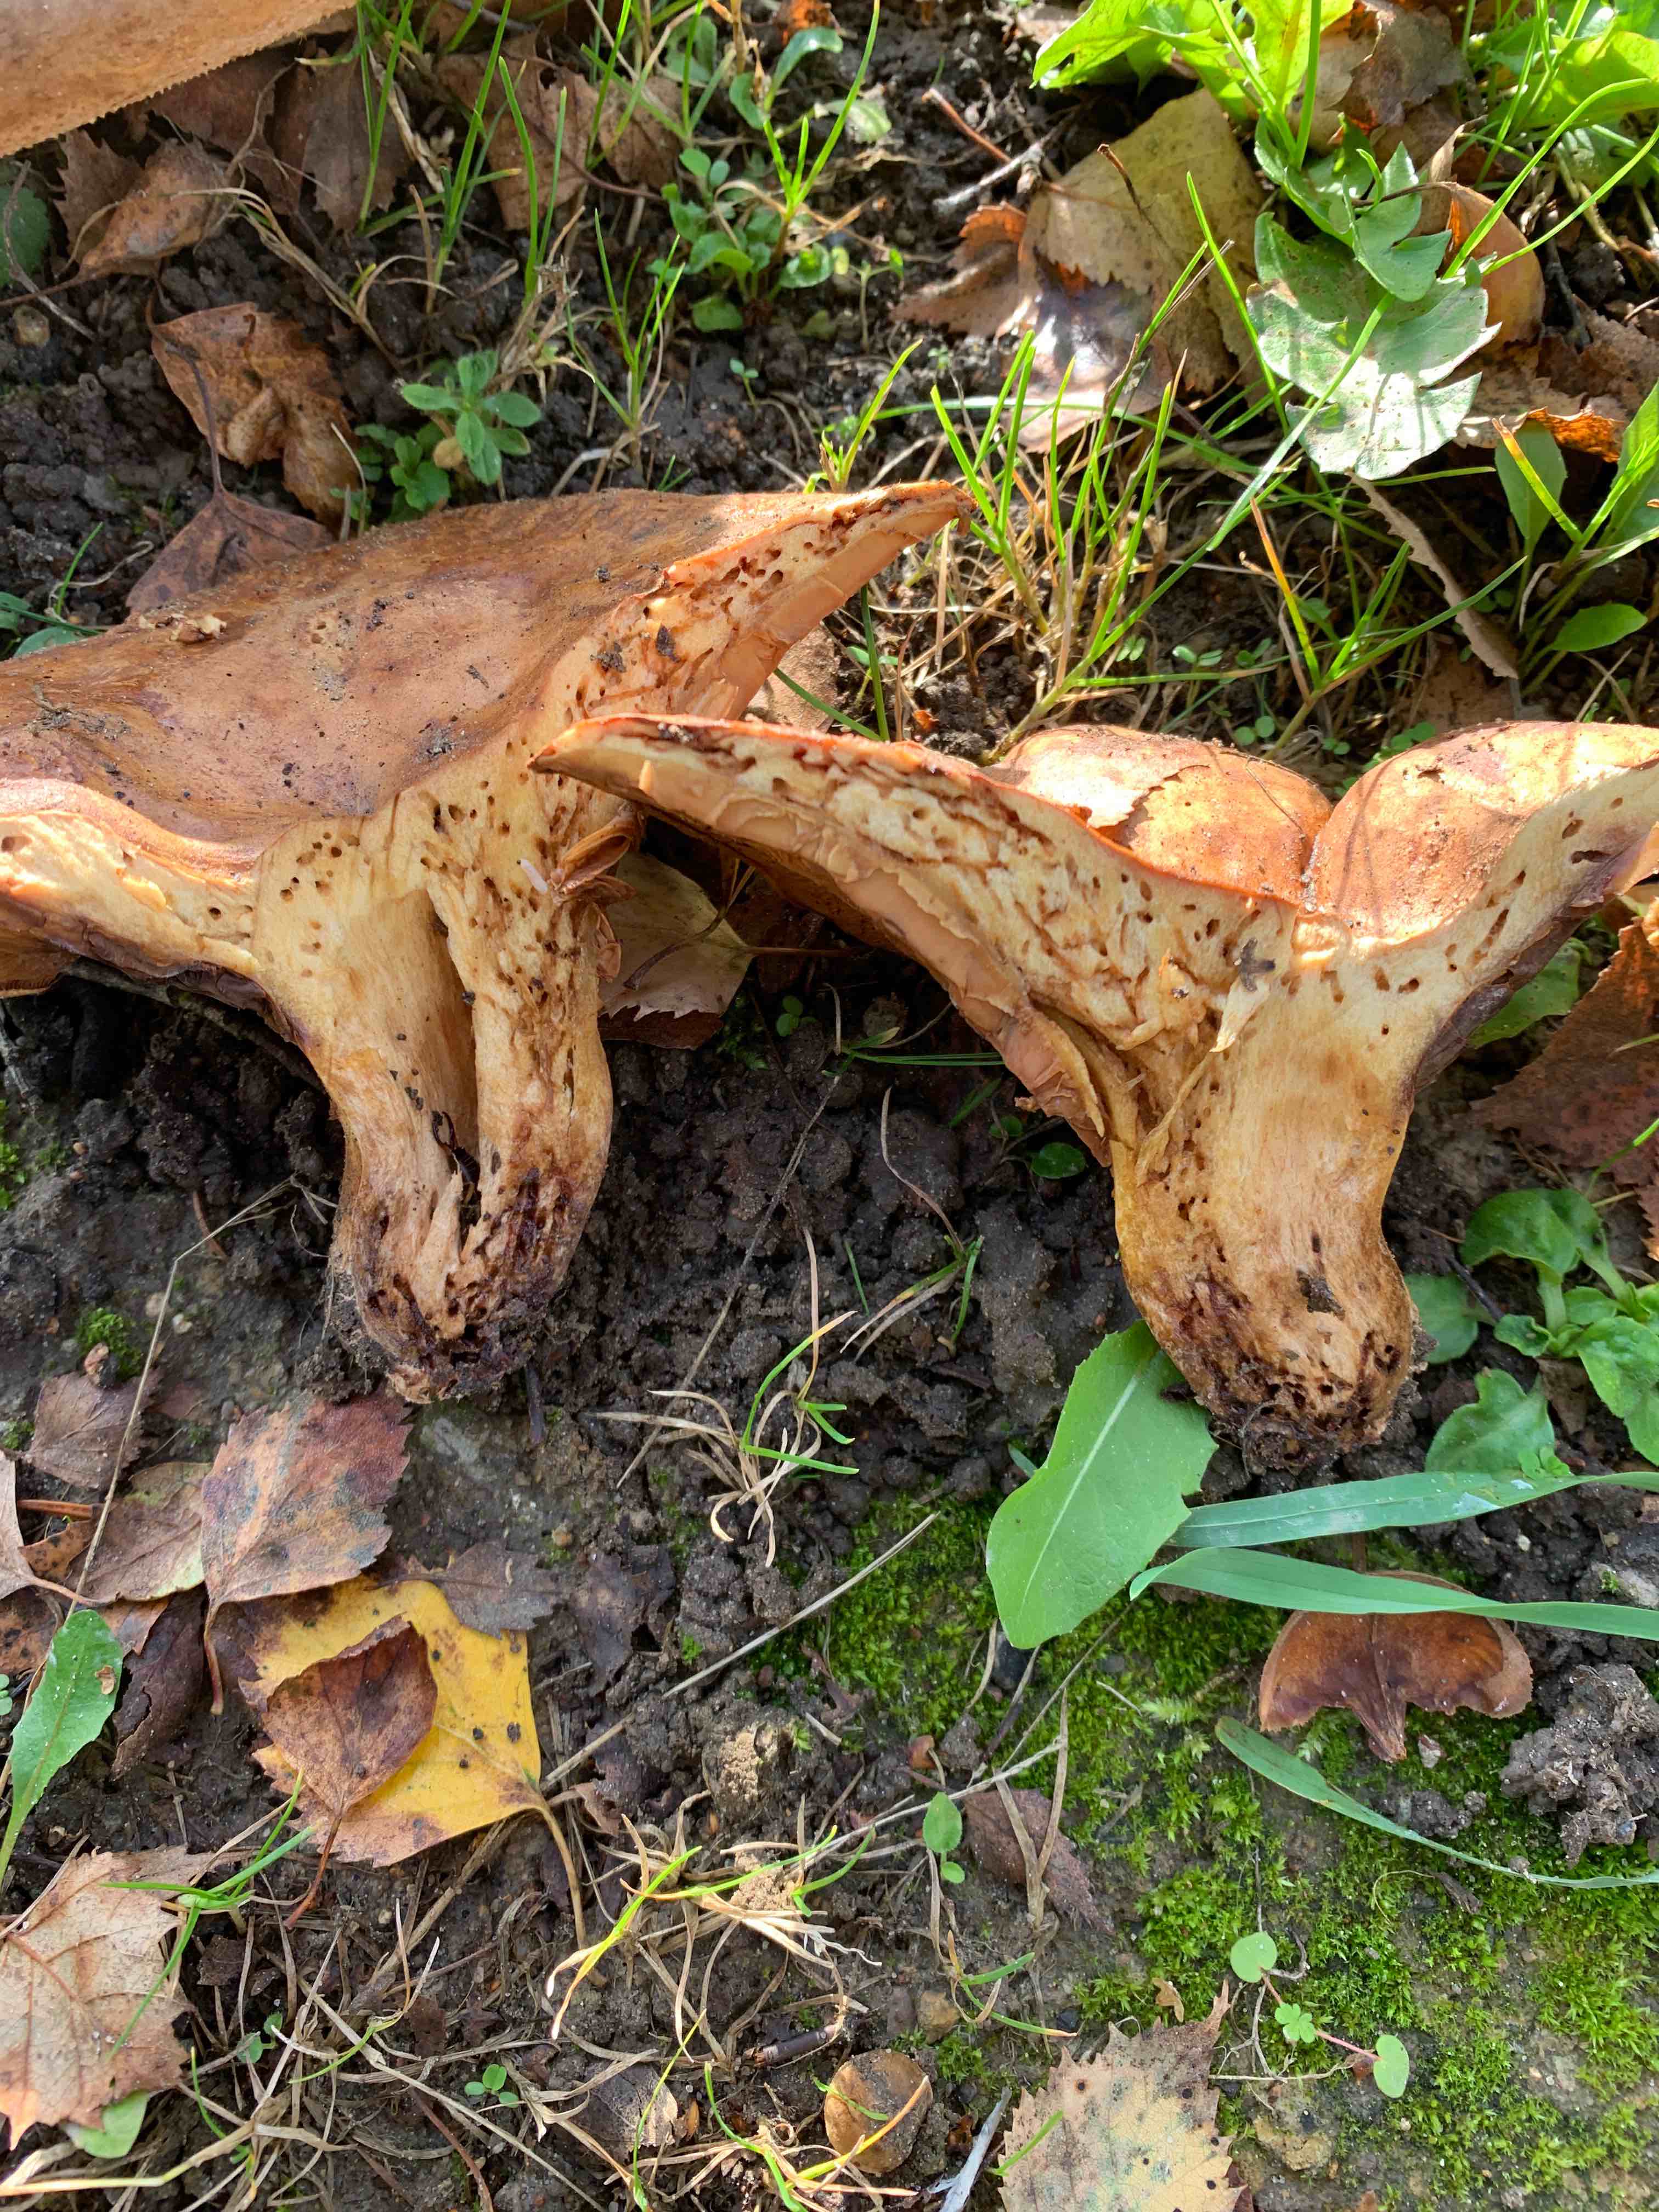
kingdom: Fungi
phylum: Basidiomycota
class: Agaricomycetes
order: Boletales
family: Paxillaceae
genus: Paxillus
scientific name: Paxillus
